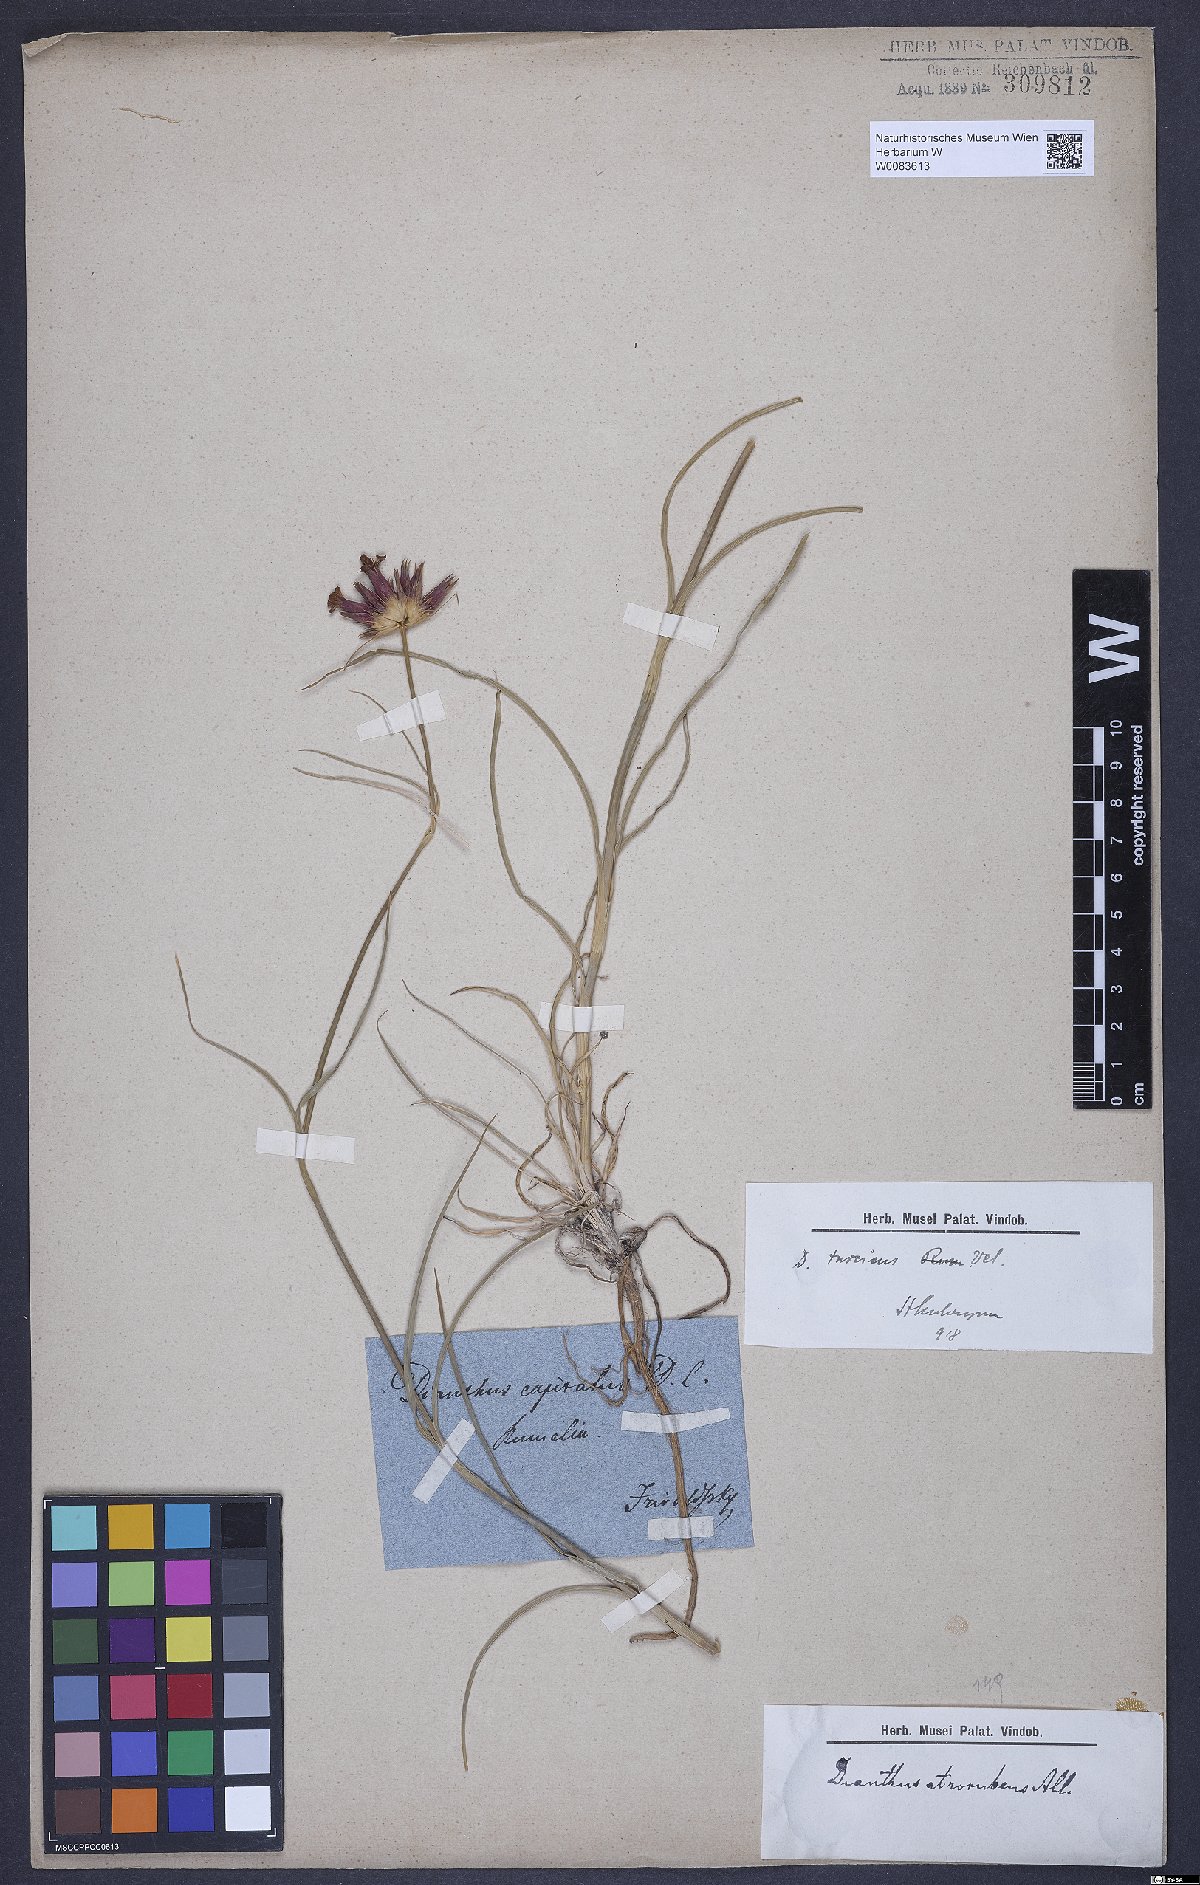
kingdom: Plantae
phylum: Tracheophyta
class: Magnoliopsida
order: Caryophyllales
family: Caryophyllaceae
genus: Dianthus
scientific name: Dianthus cruentus
